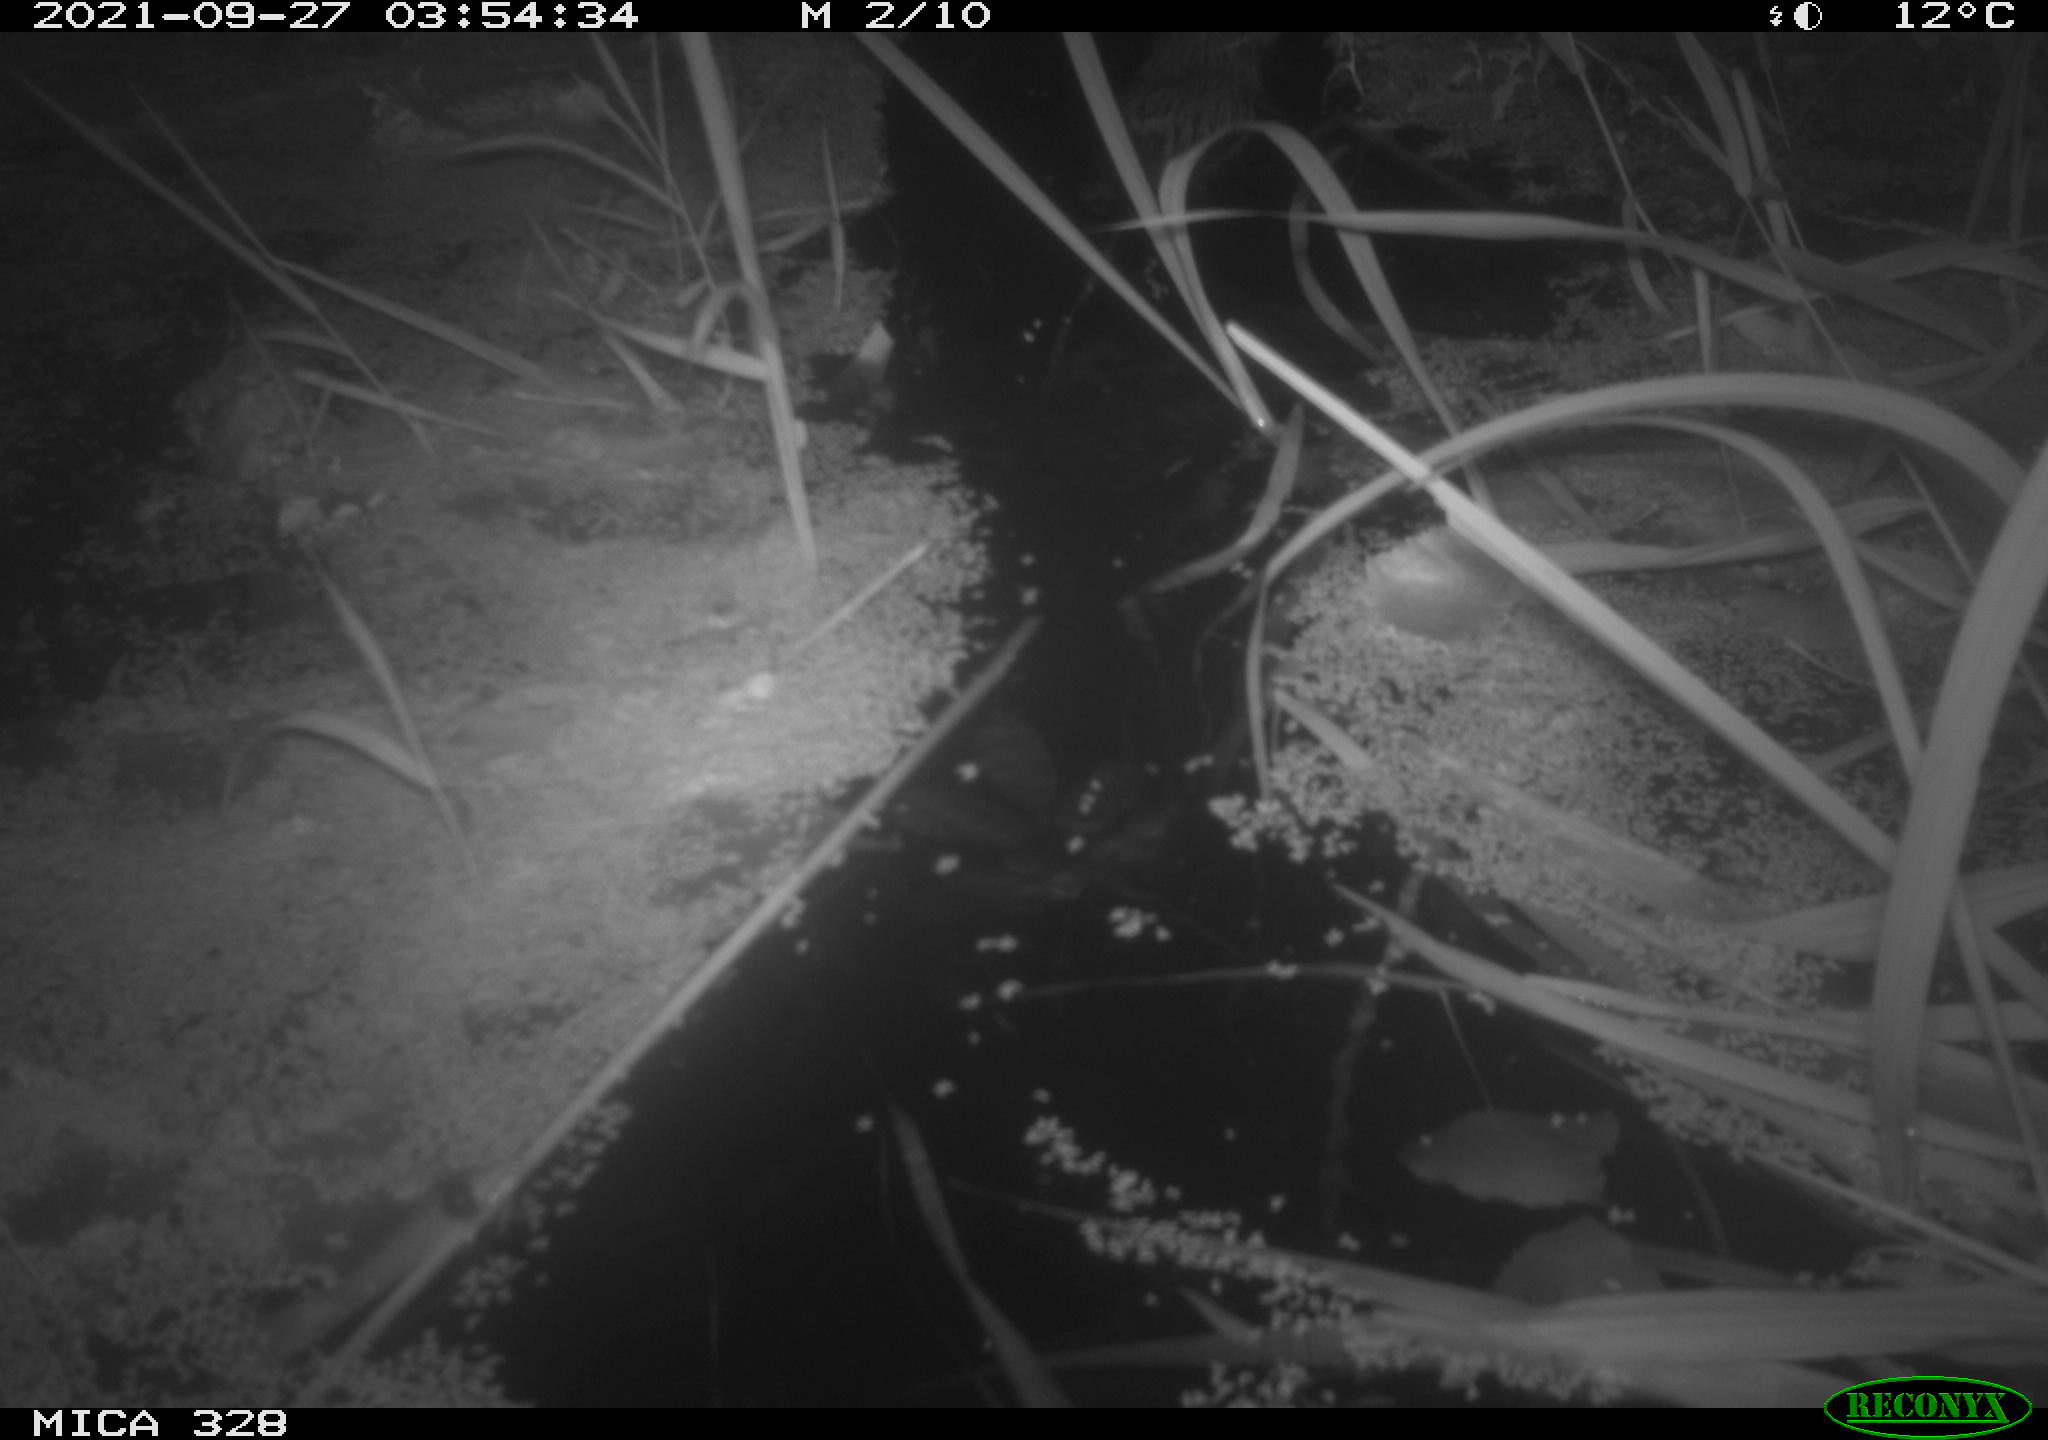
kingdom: Animalia
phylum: Chordata
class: Mammalia
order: Rodentia
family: Cricetidae
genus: Ondatra
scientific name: Ondatra zibethicus
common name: Muskrat
